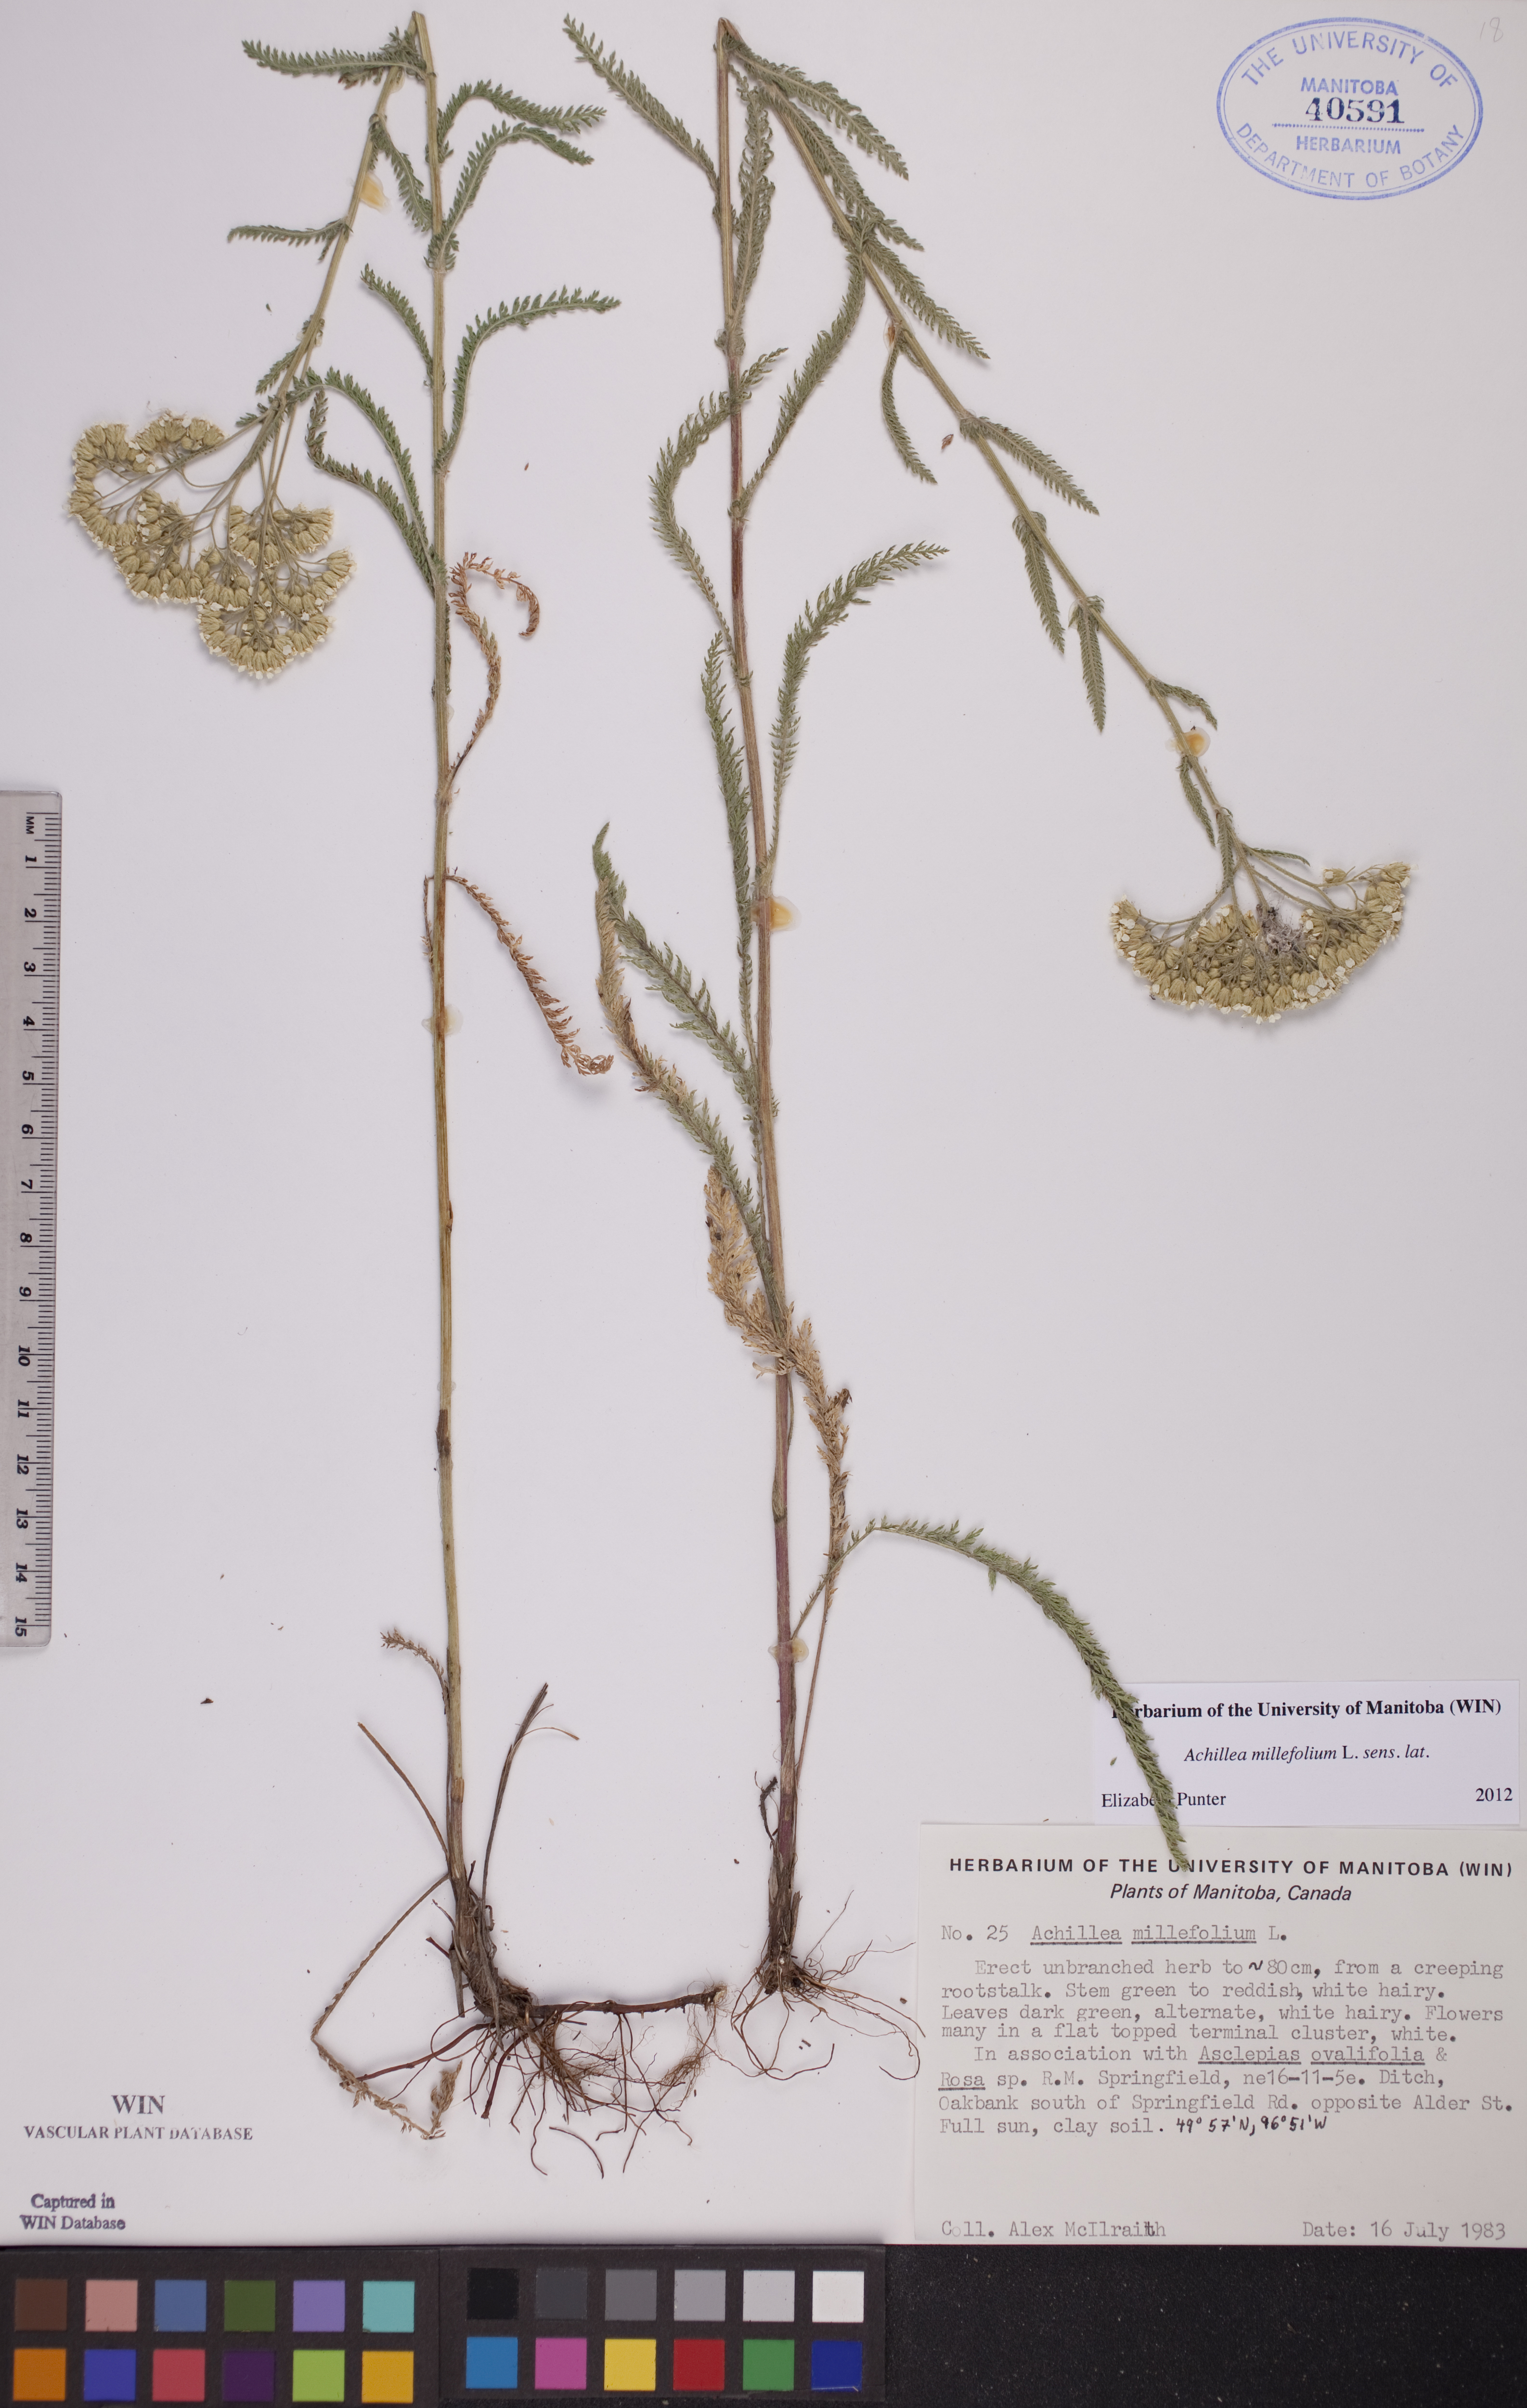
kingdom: Plantae
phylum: Tracheophyta
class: Magnoliopsida
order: Asterales
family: Asteraceae
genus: Achillea
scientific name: Achillea millefolium
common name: Yarrow
